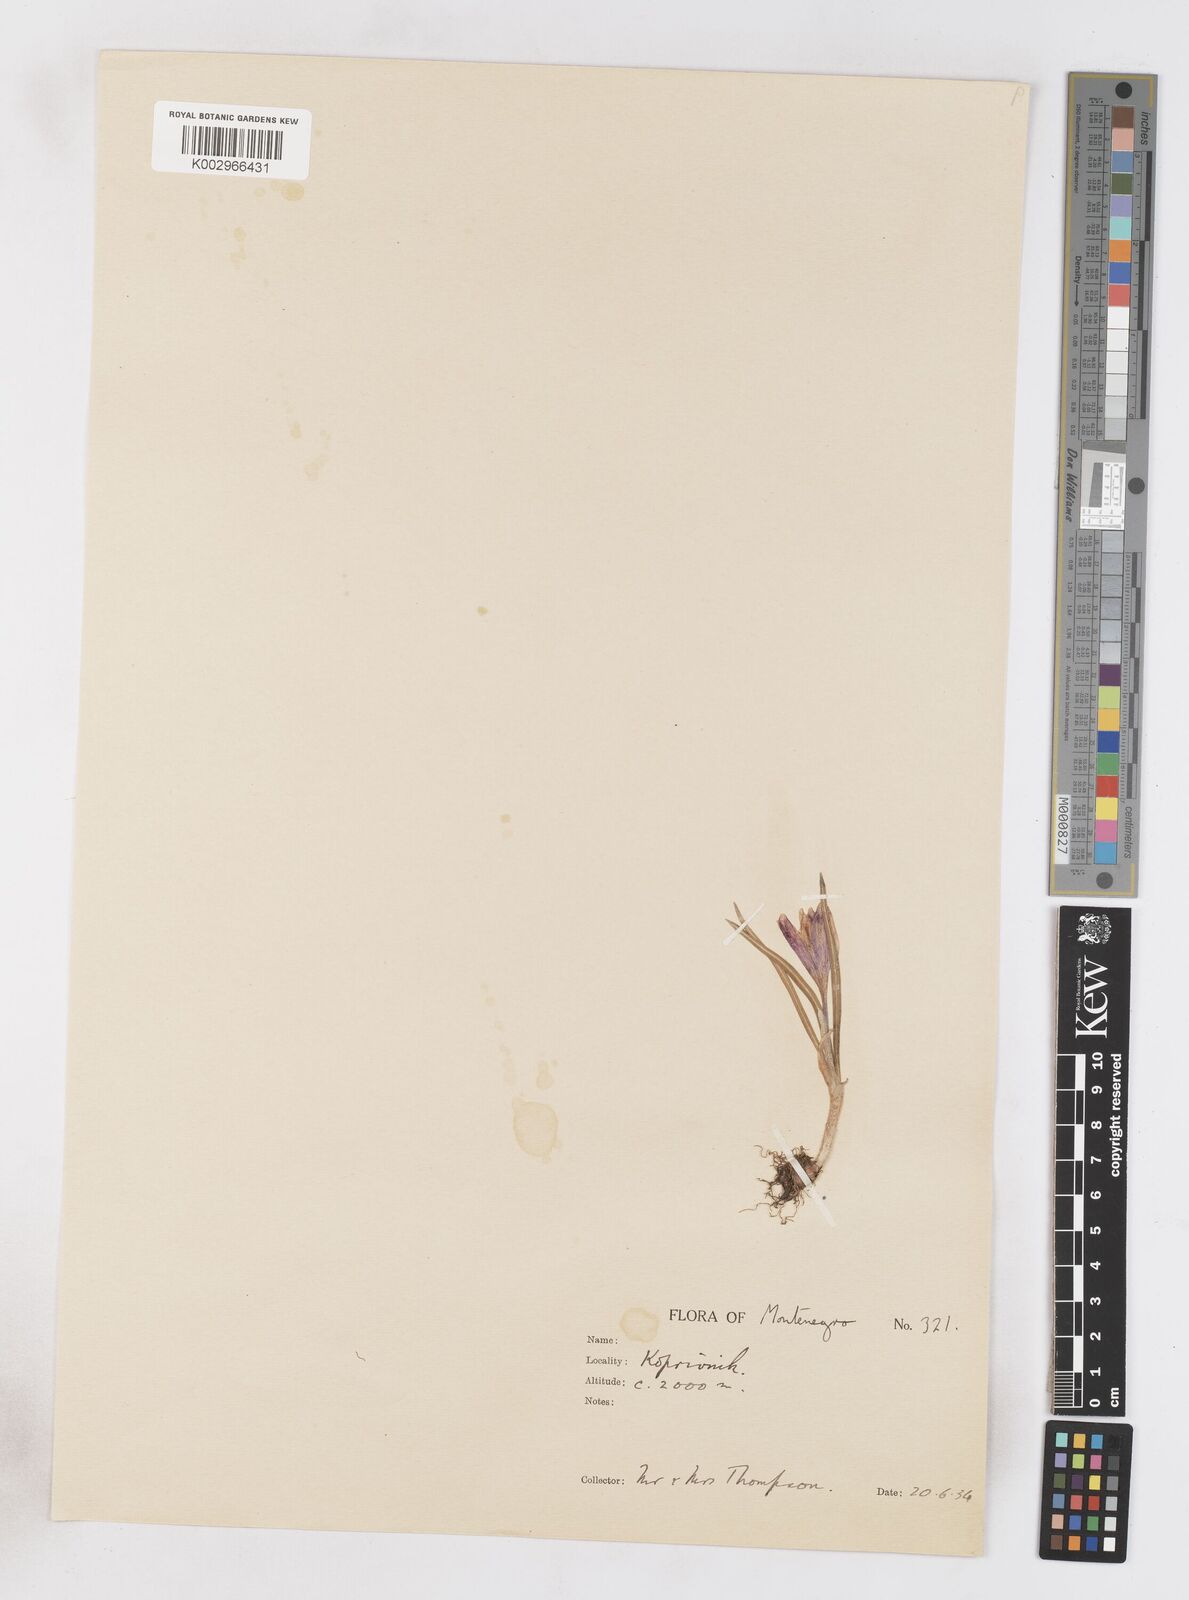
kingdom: Plantae
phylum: Tracheophyta
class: Liliopsida
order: Asparagales
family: Iridaceae
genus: Crocus
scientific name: Crocus vernus
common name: Spring crocus
